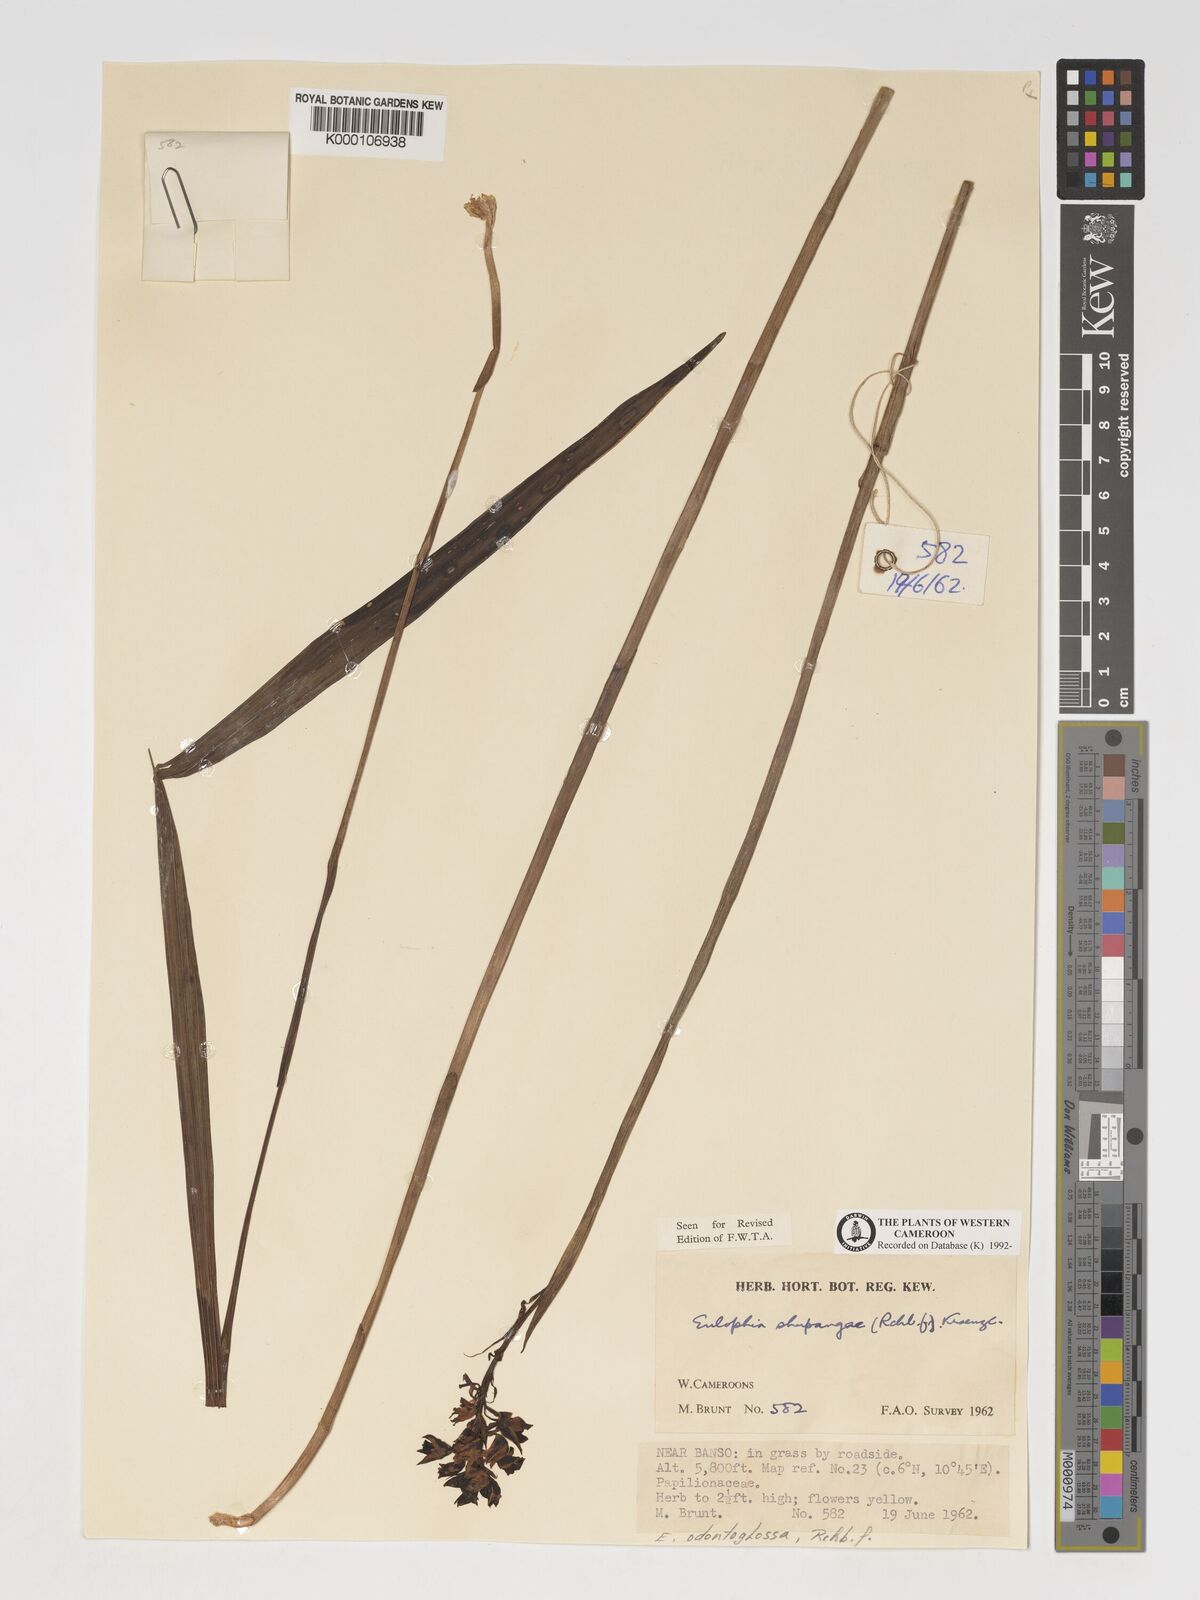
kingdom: Plantae
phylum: Tracheophyta
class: Liliopsida
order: Asparagales
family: Orchidaceae
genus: Eulophia
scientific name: Eulophia odontoglossa
